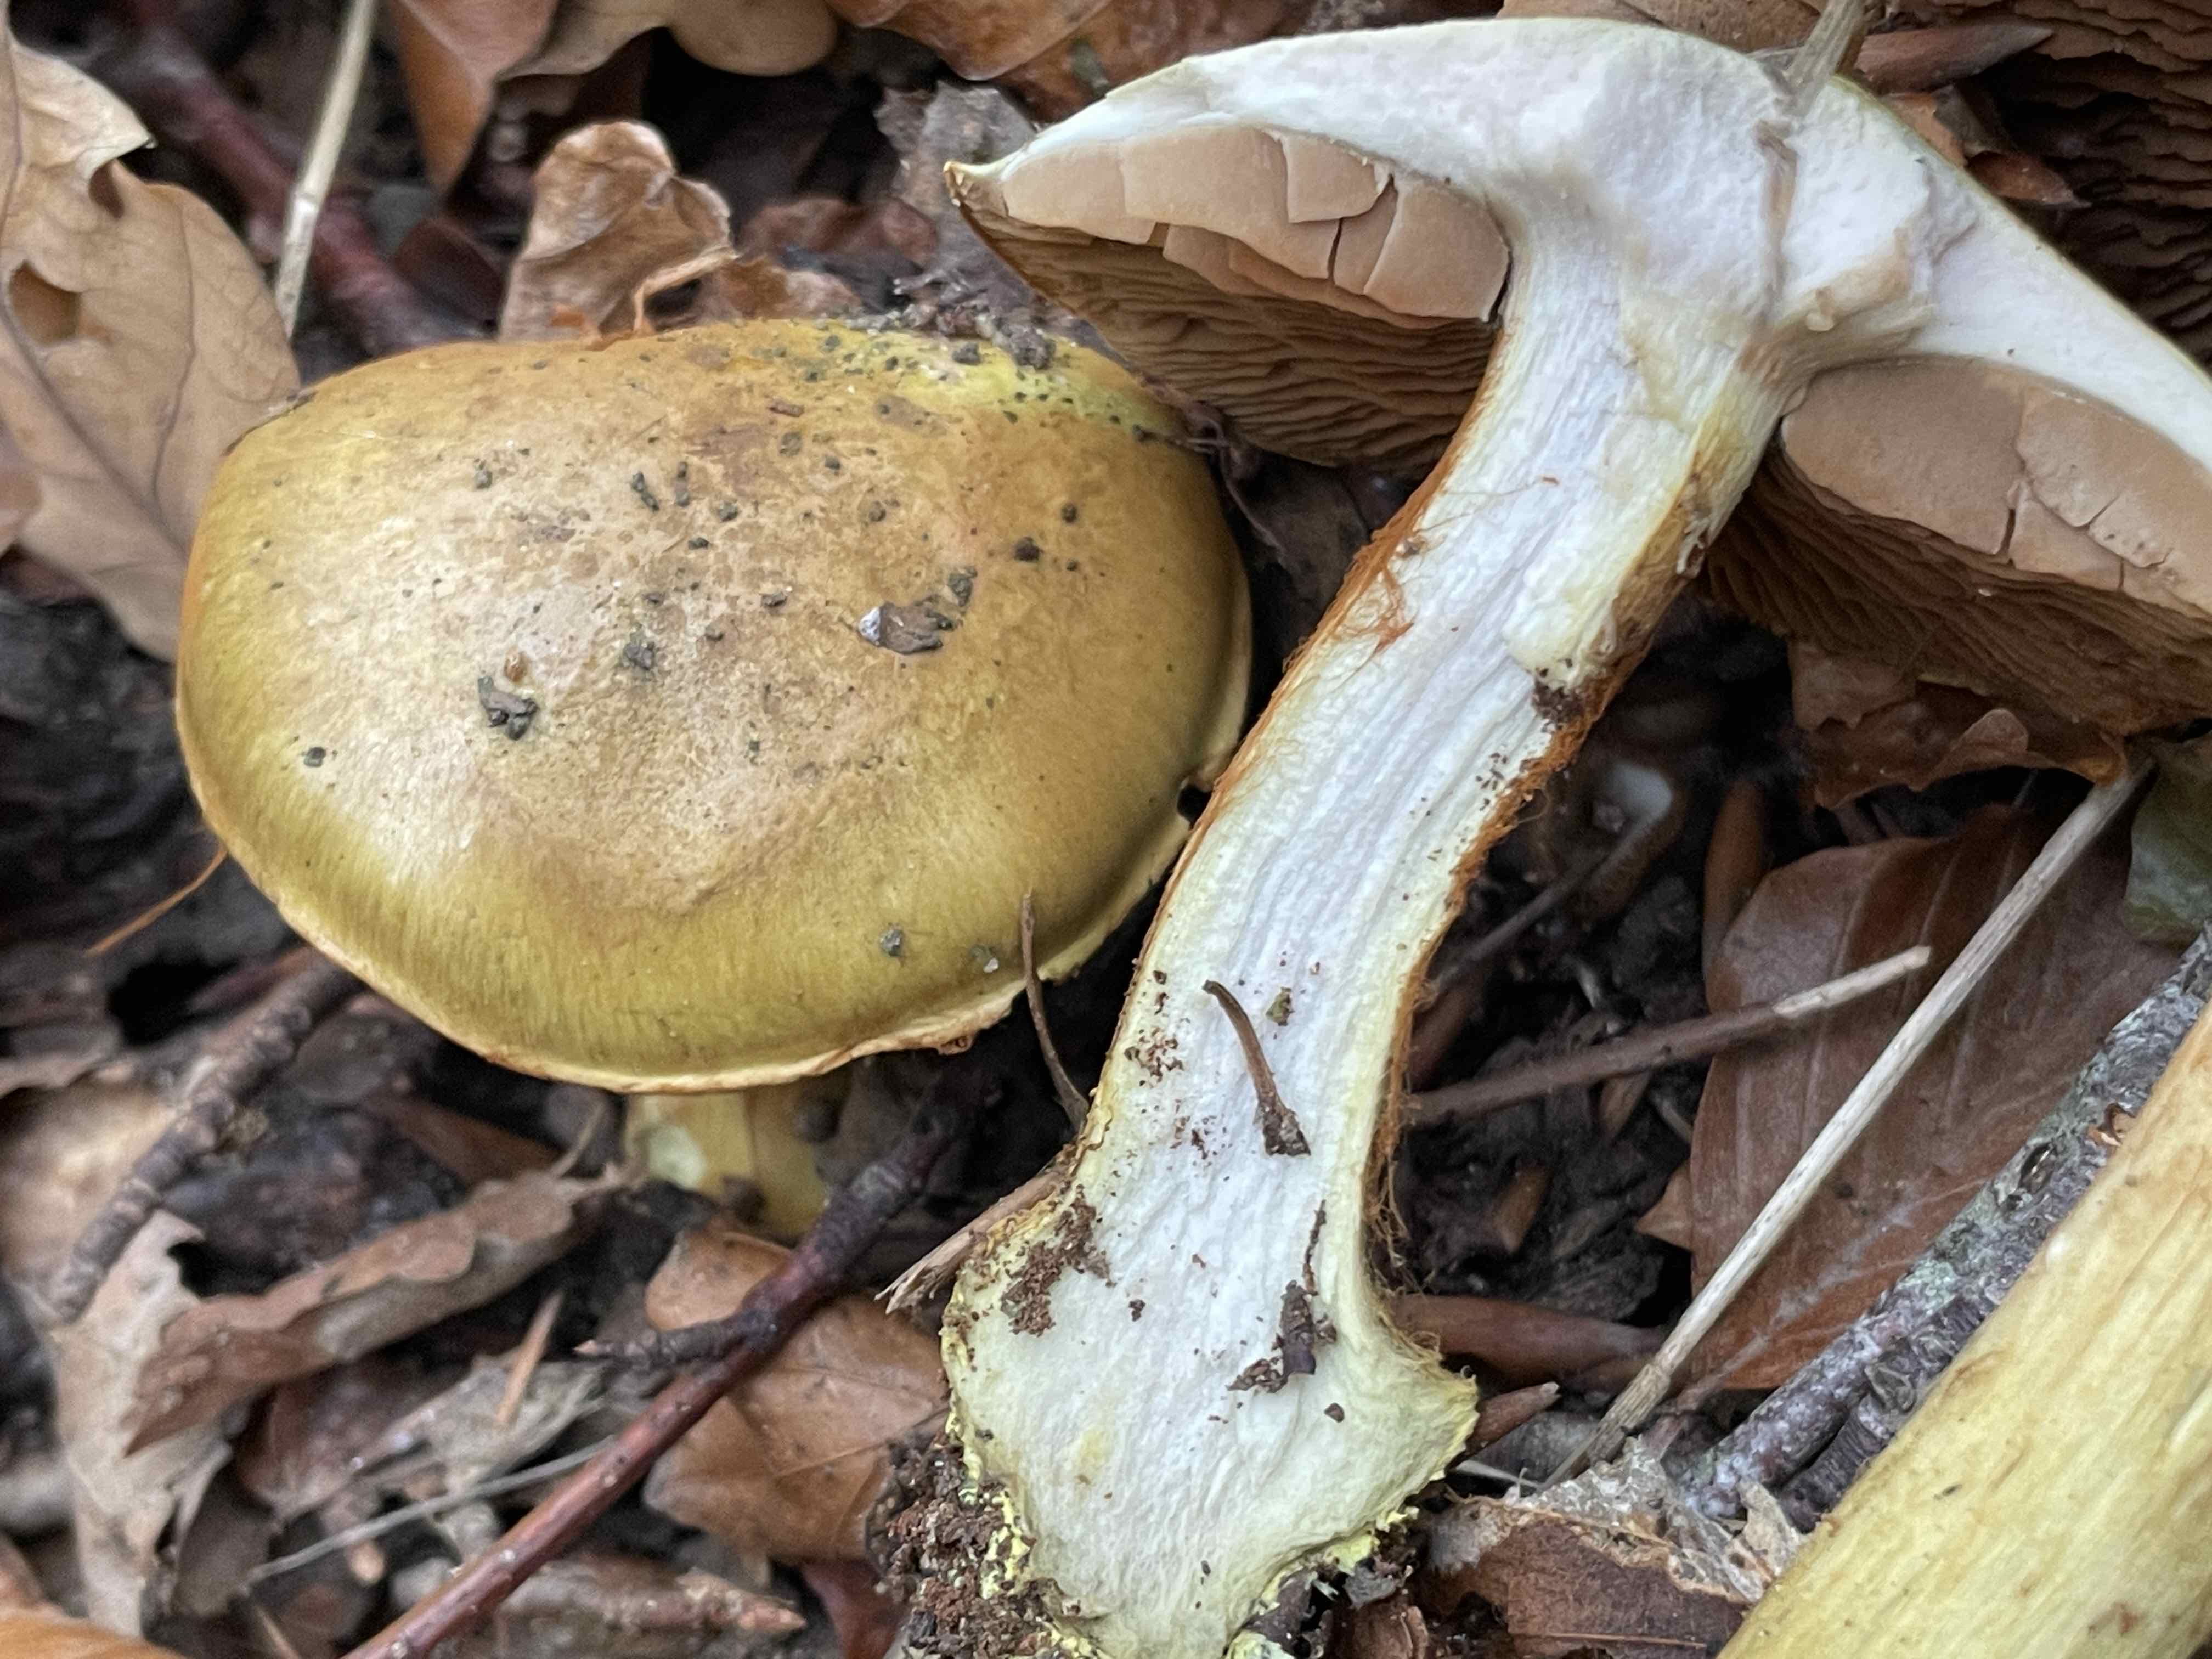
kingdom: Fungi
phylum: Basidiomycota
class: Agaricomycetes
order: Agaricales
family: Cortinariaceae
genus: Calonarius
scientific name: Calonarius odoratus
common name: krydret slørhat
